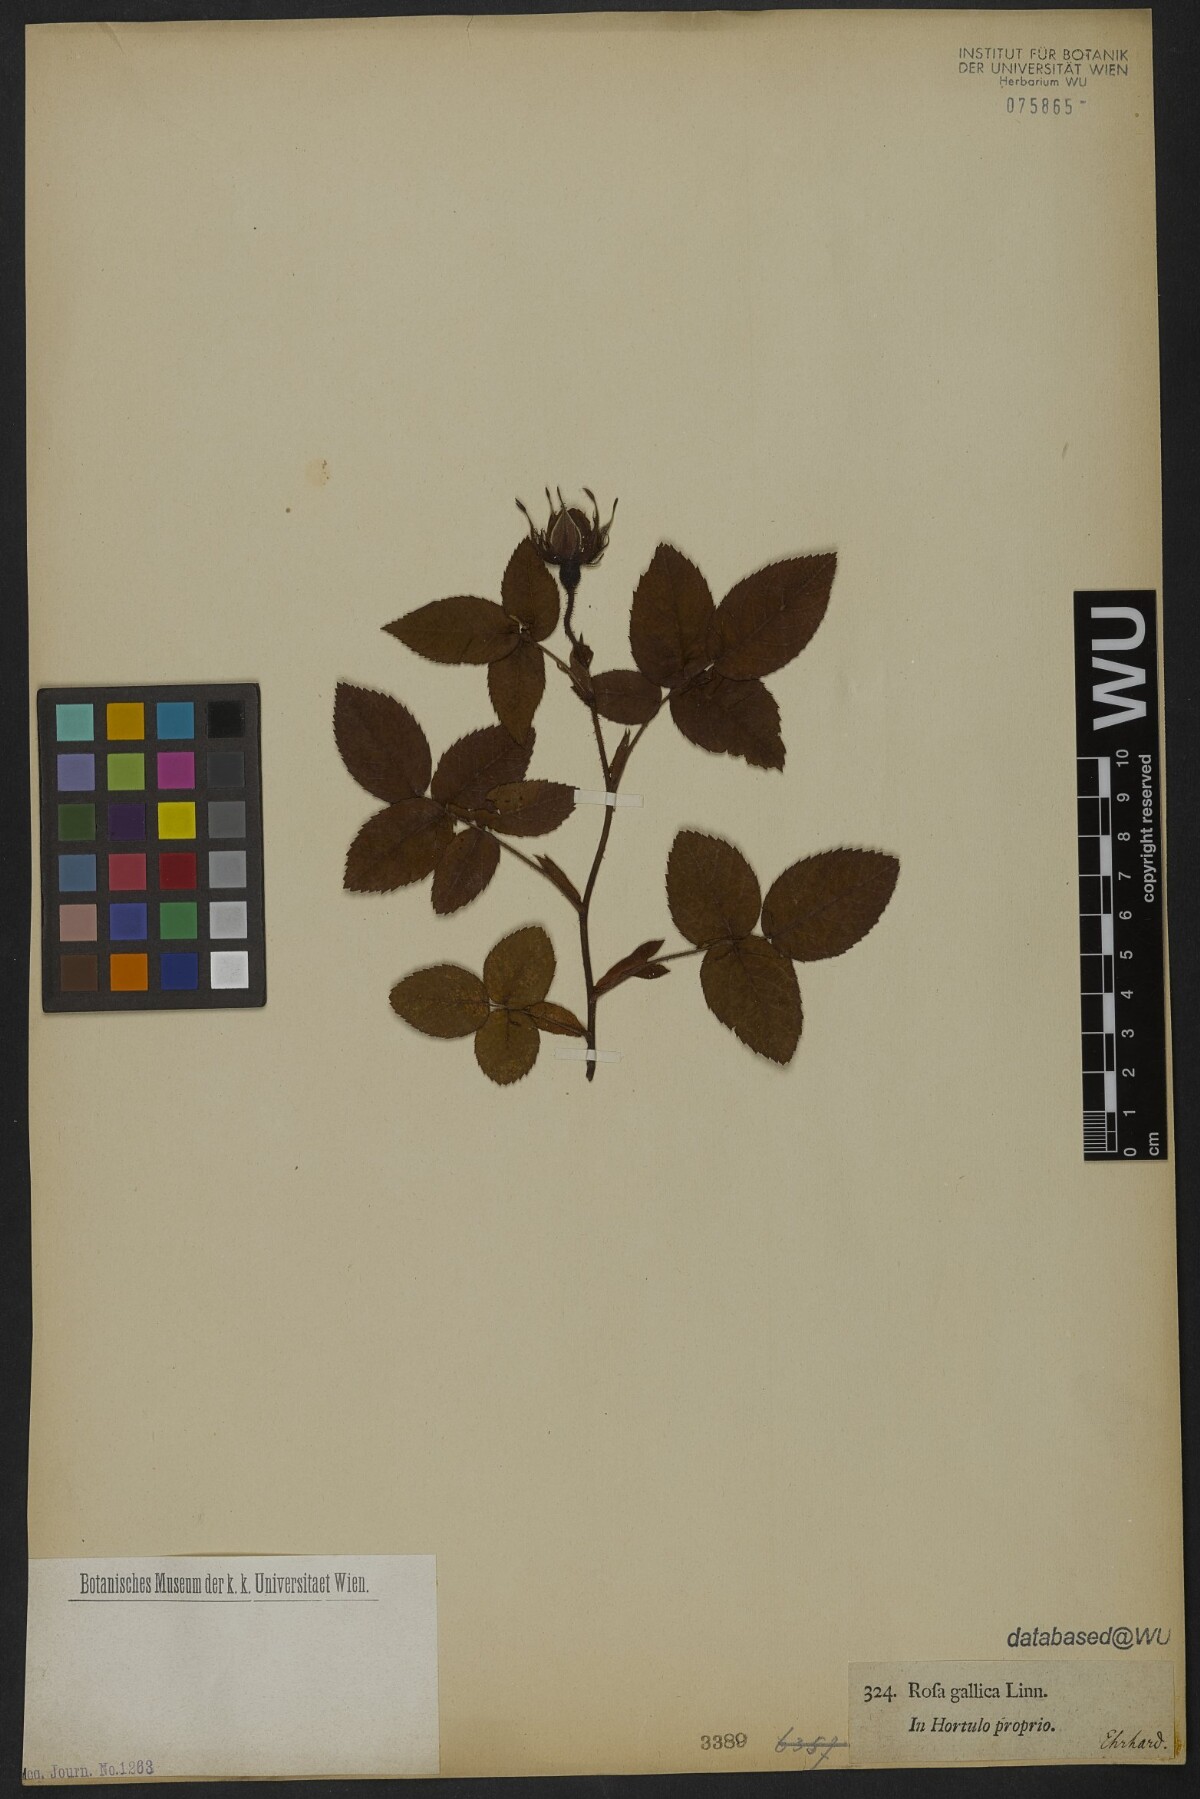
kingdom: Plantae
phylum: Tracheophyta
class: Magnoliopsida
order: Rosales
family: Rosaceae
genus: Rosa
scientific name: Rosa gallica
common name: French rose
